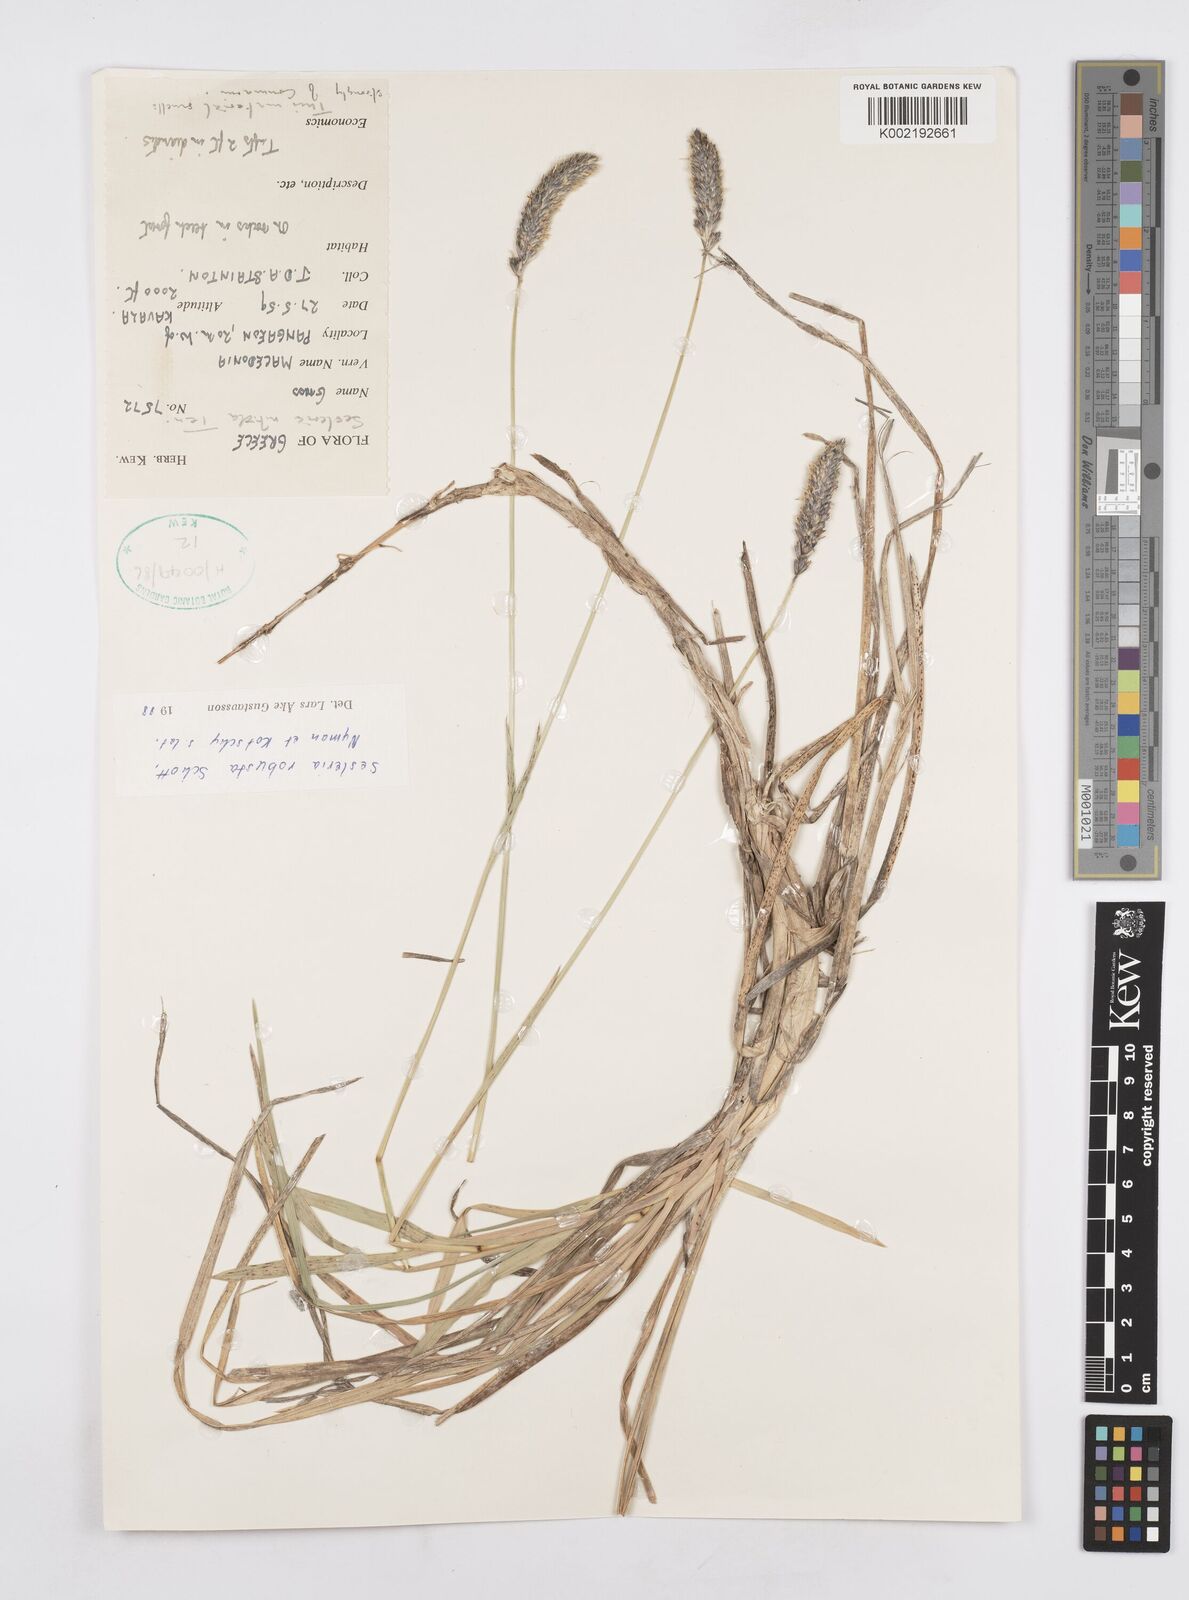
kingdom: Plantae
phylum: Tracheophyta
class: Liliopsida
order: Poales
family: Poaceae
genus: Sesleria
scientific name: Sesleria robusta
